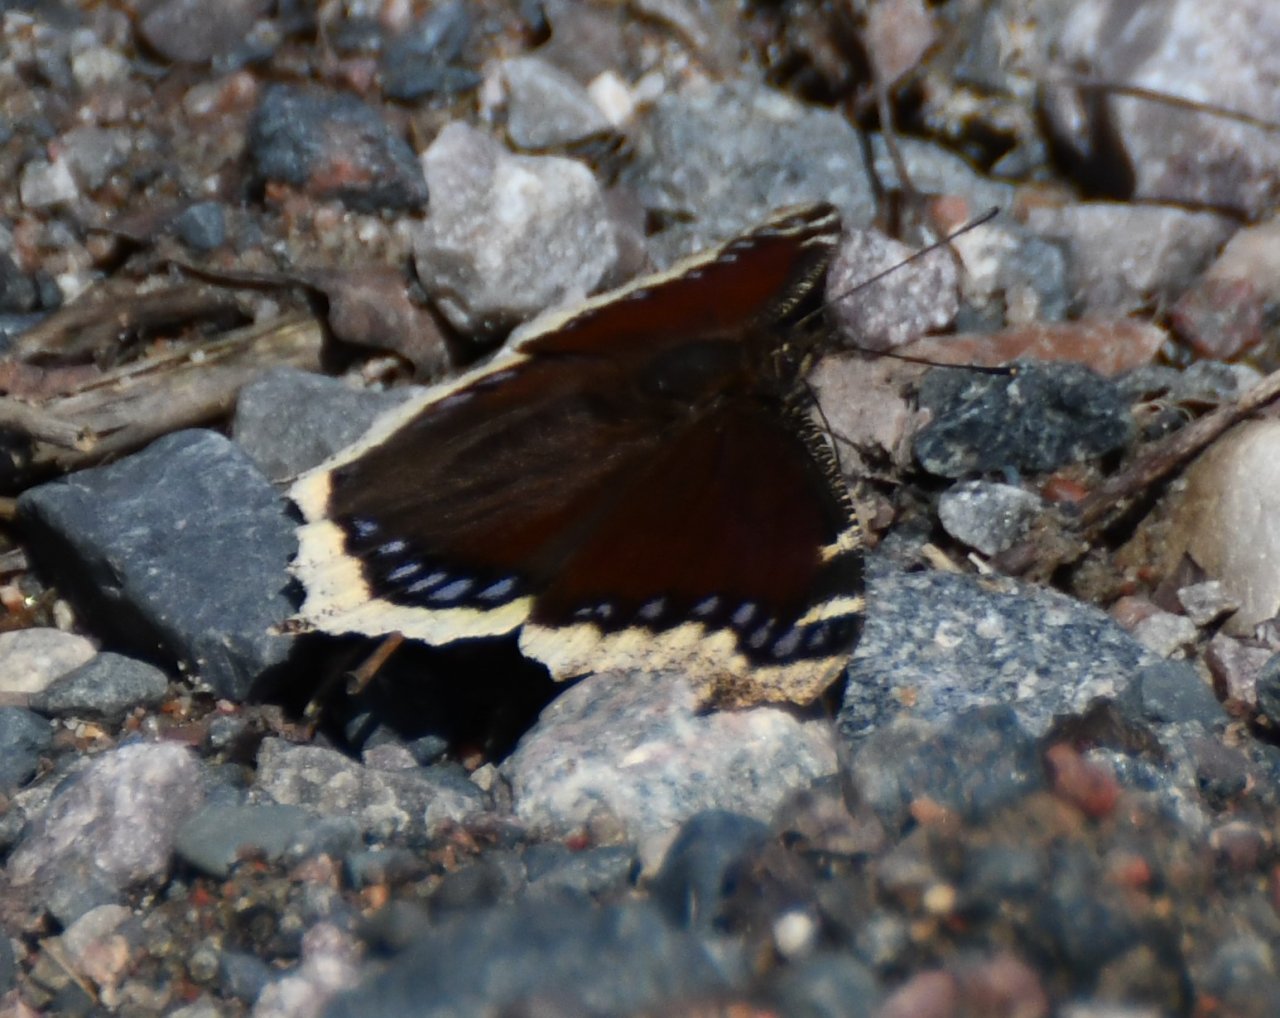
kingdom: Animalia
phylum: Arthropoda
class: Insecta
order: Lepidoptera
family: Nymphalidae
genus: Nymphalis
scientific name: Nymphalis antiopa
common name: Mourning Cloak
